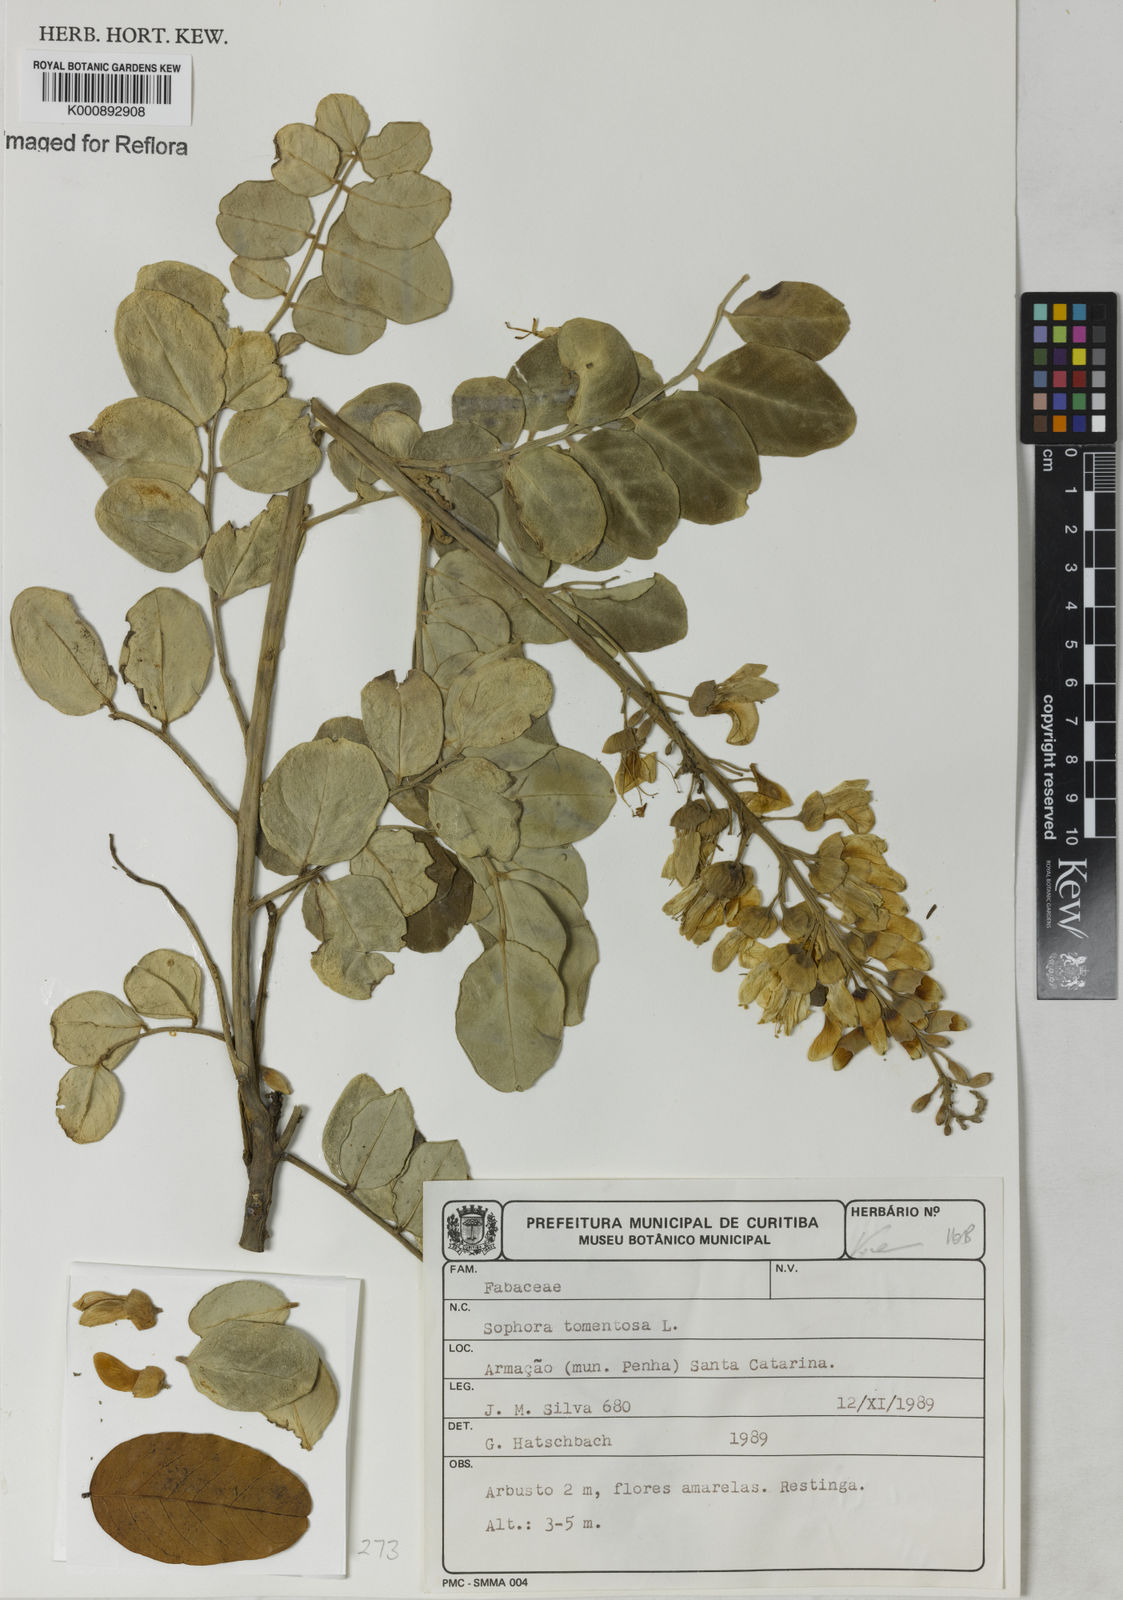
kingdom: Plantae
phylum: Tracheophyta
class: Magnoliopsida
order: Fabales
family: Fabaceae
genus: Sophora
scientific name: Sophora tomentosa
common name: Yellow necklacepod
